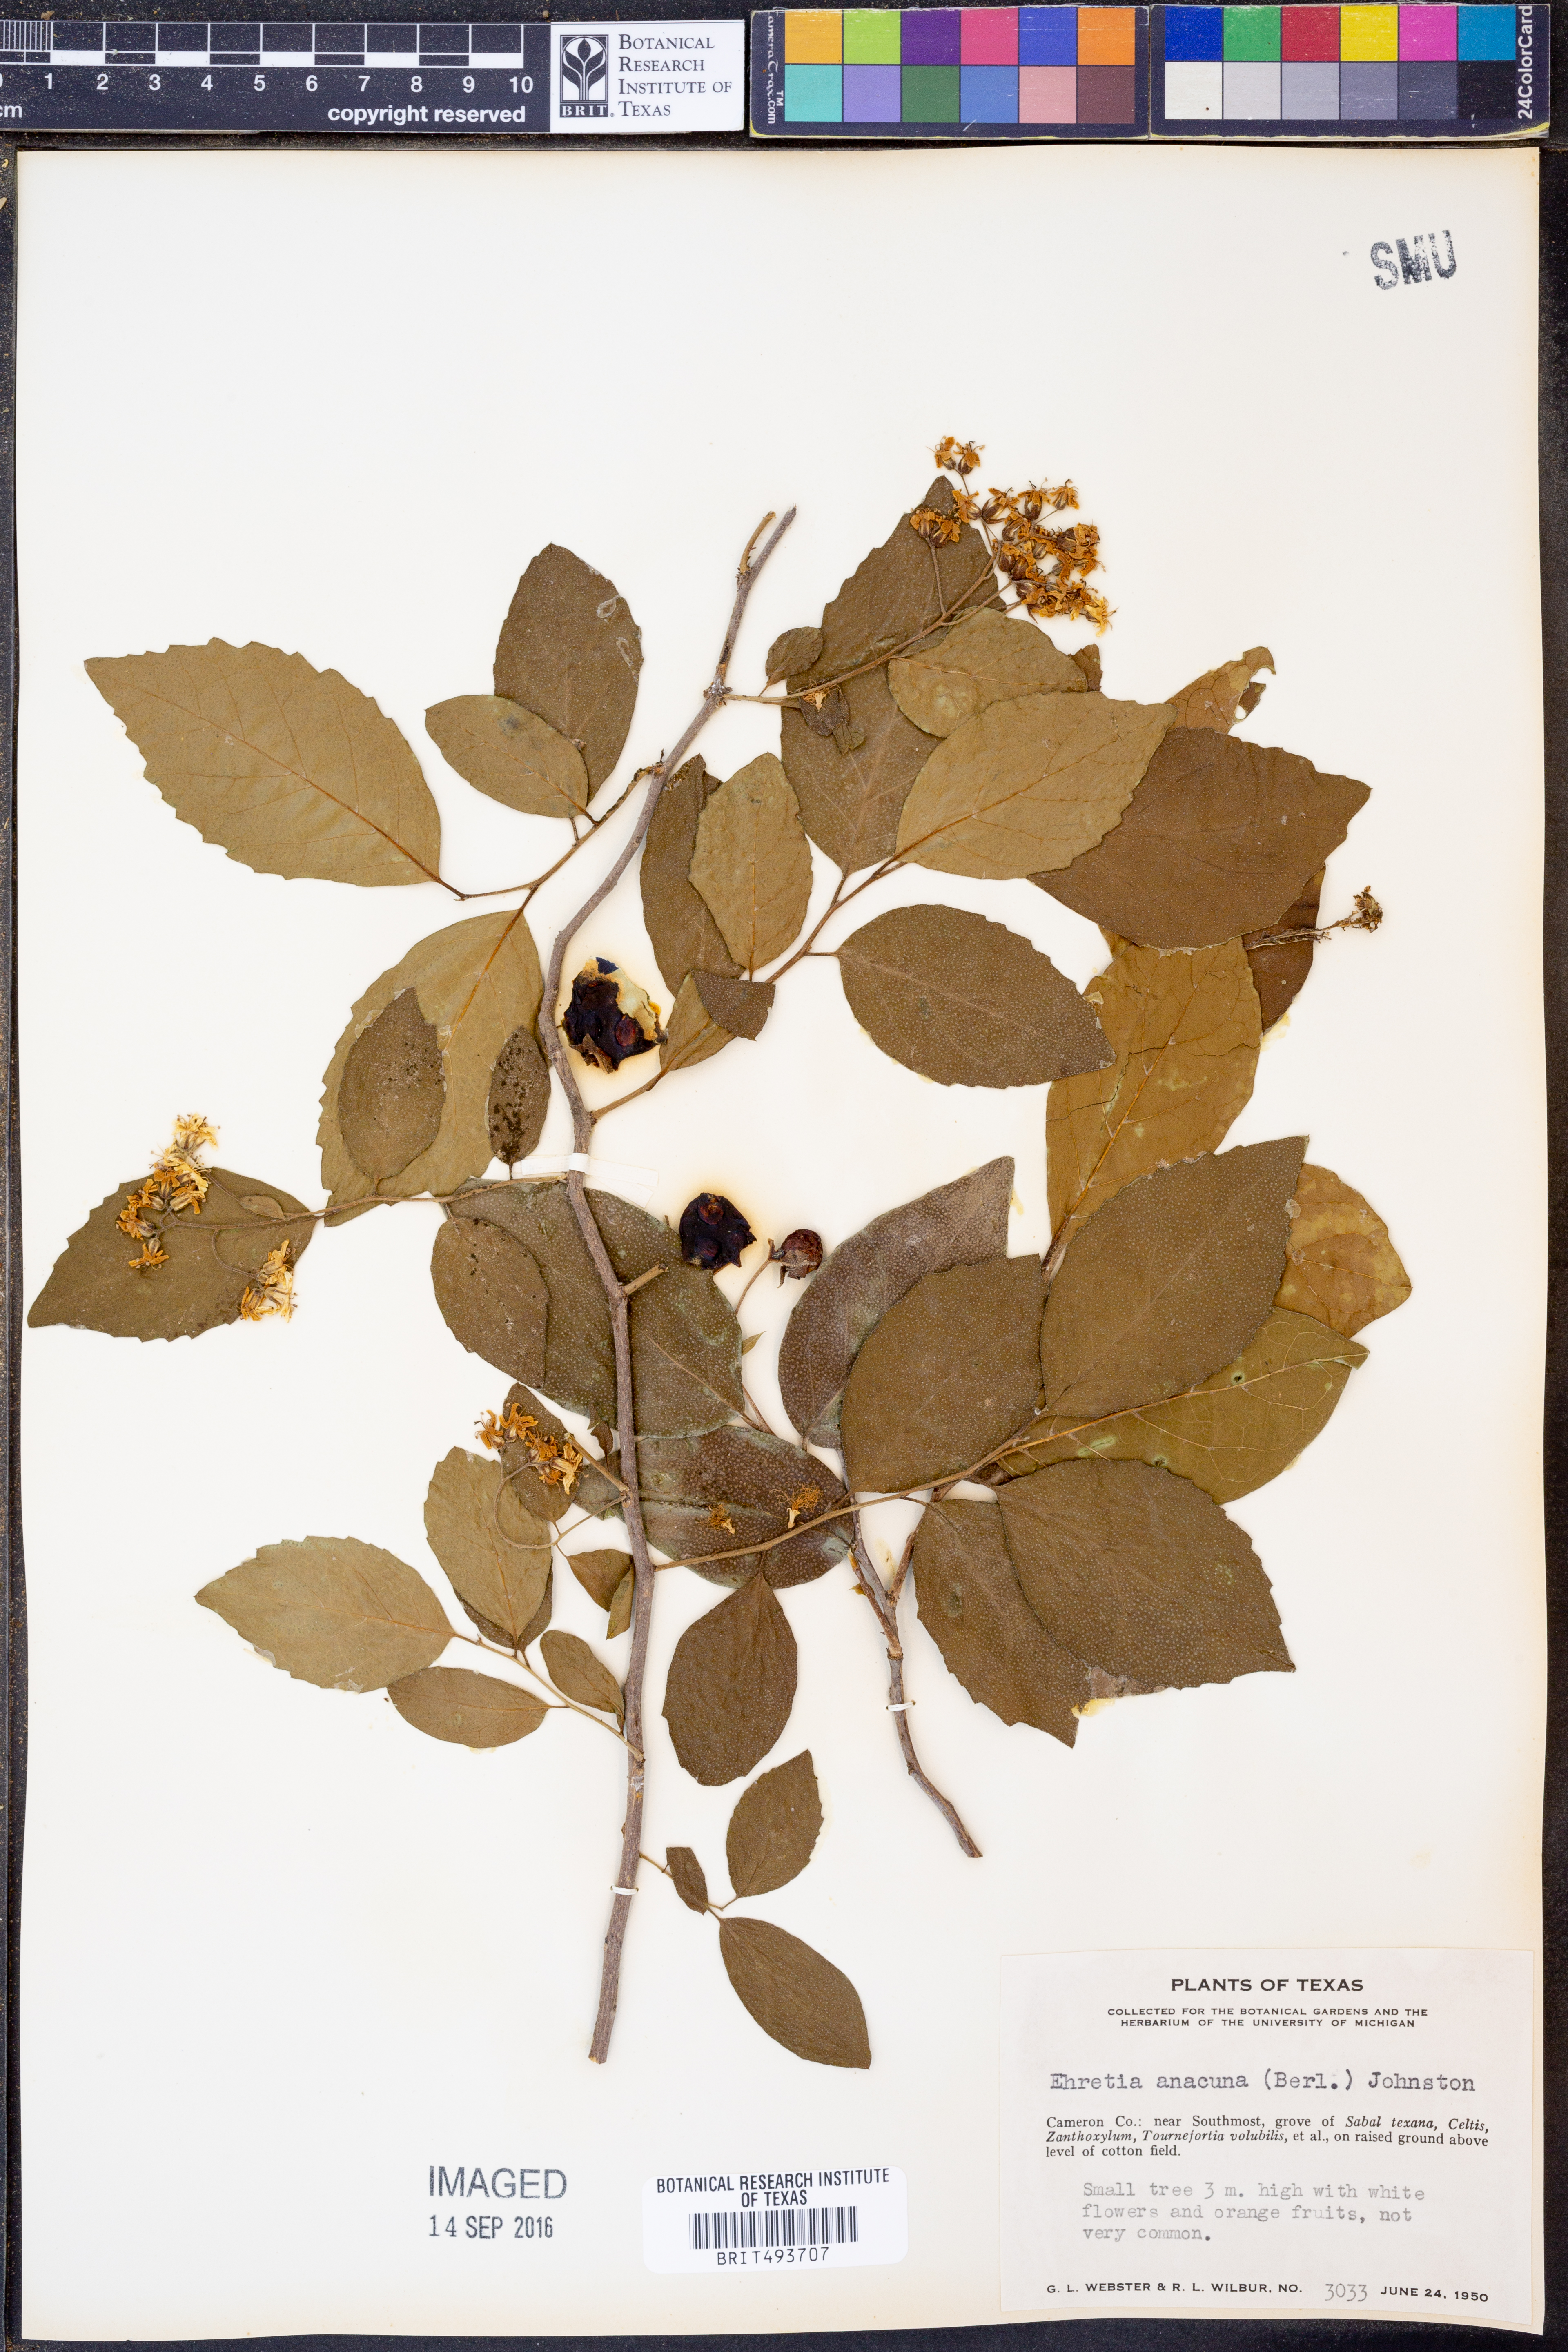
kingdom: Plantae
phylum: Tracheophyta
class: Magnoliopsida
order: Boraginales
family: Ehretiaceae
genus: Ehretia
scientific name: Ehretia anacua
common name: Sugarberry
